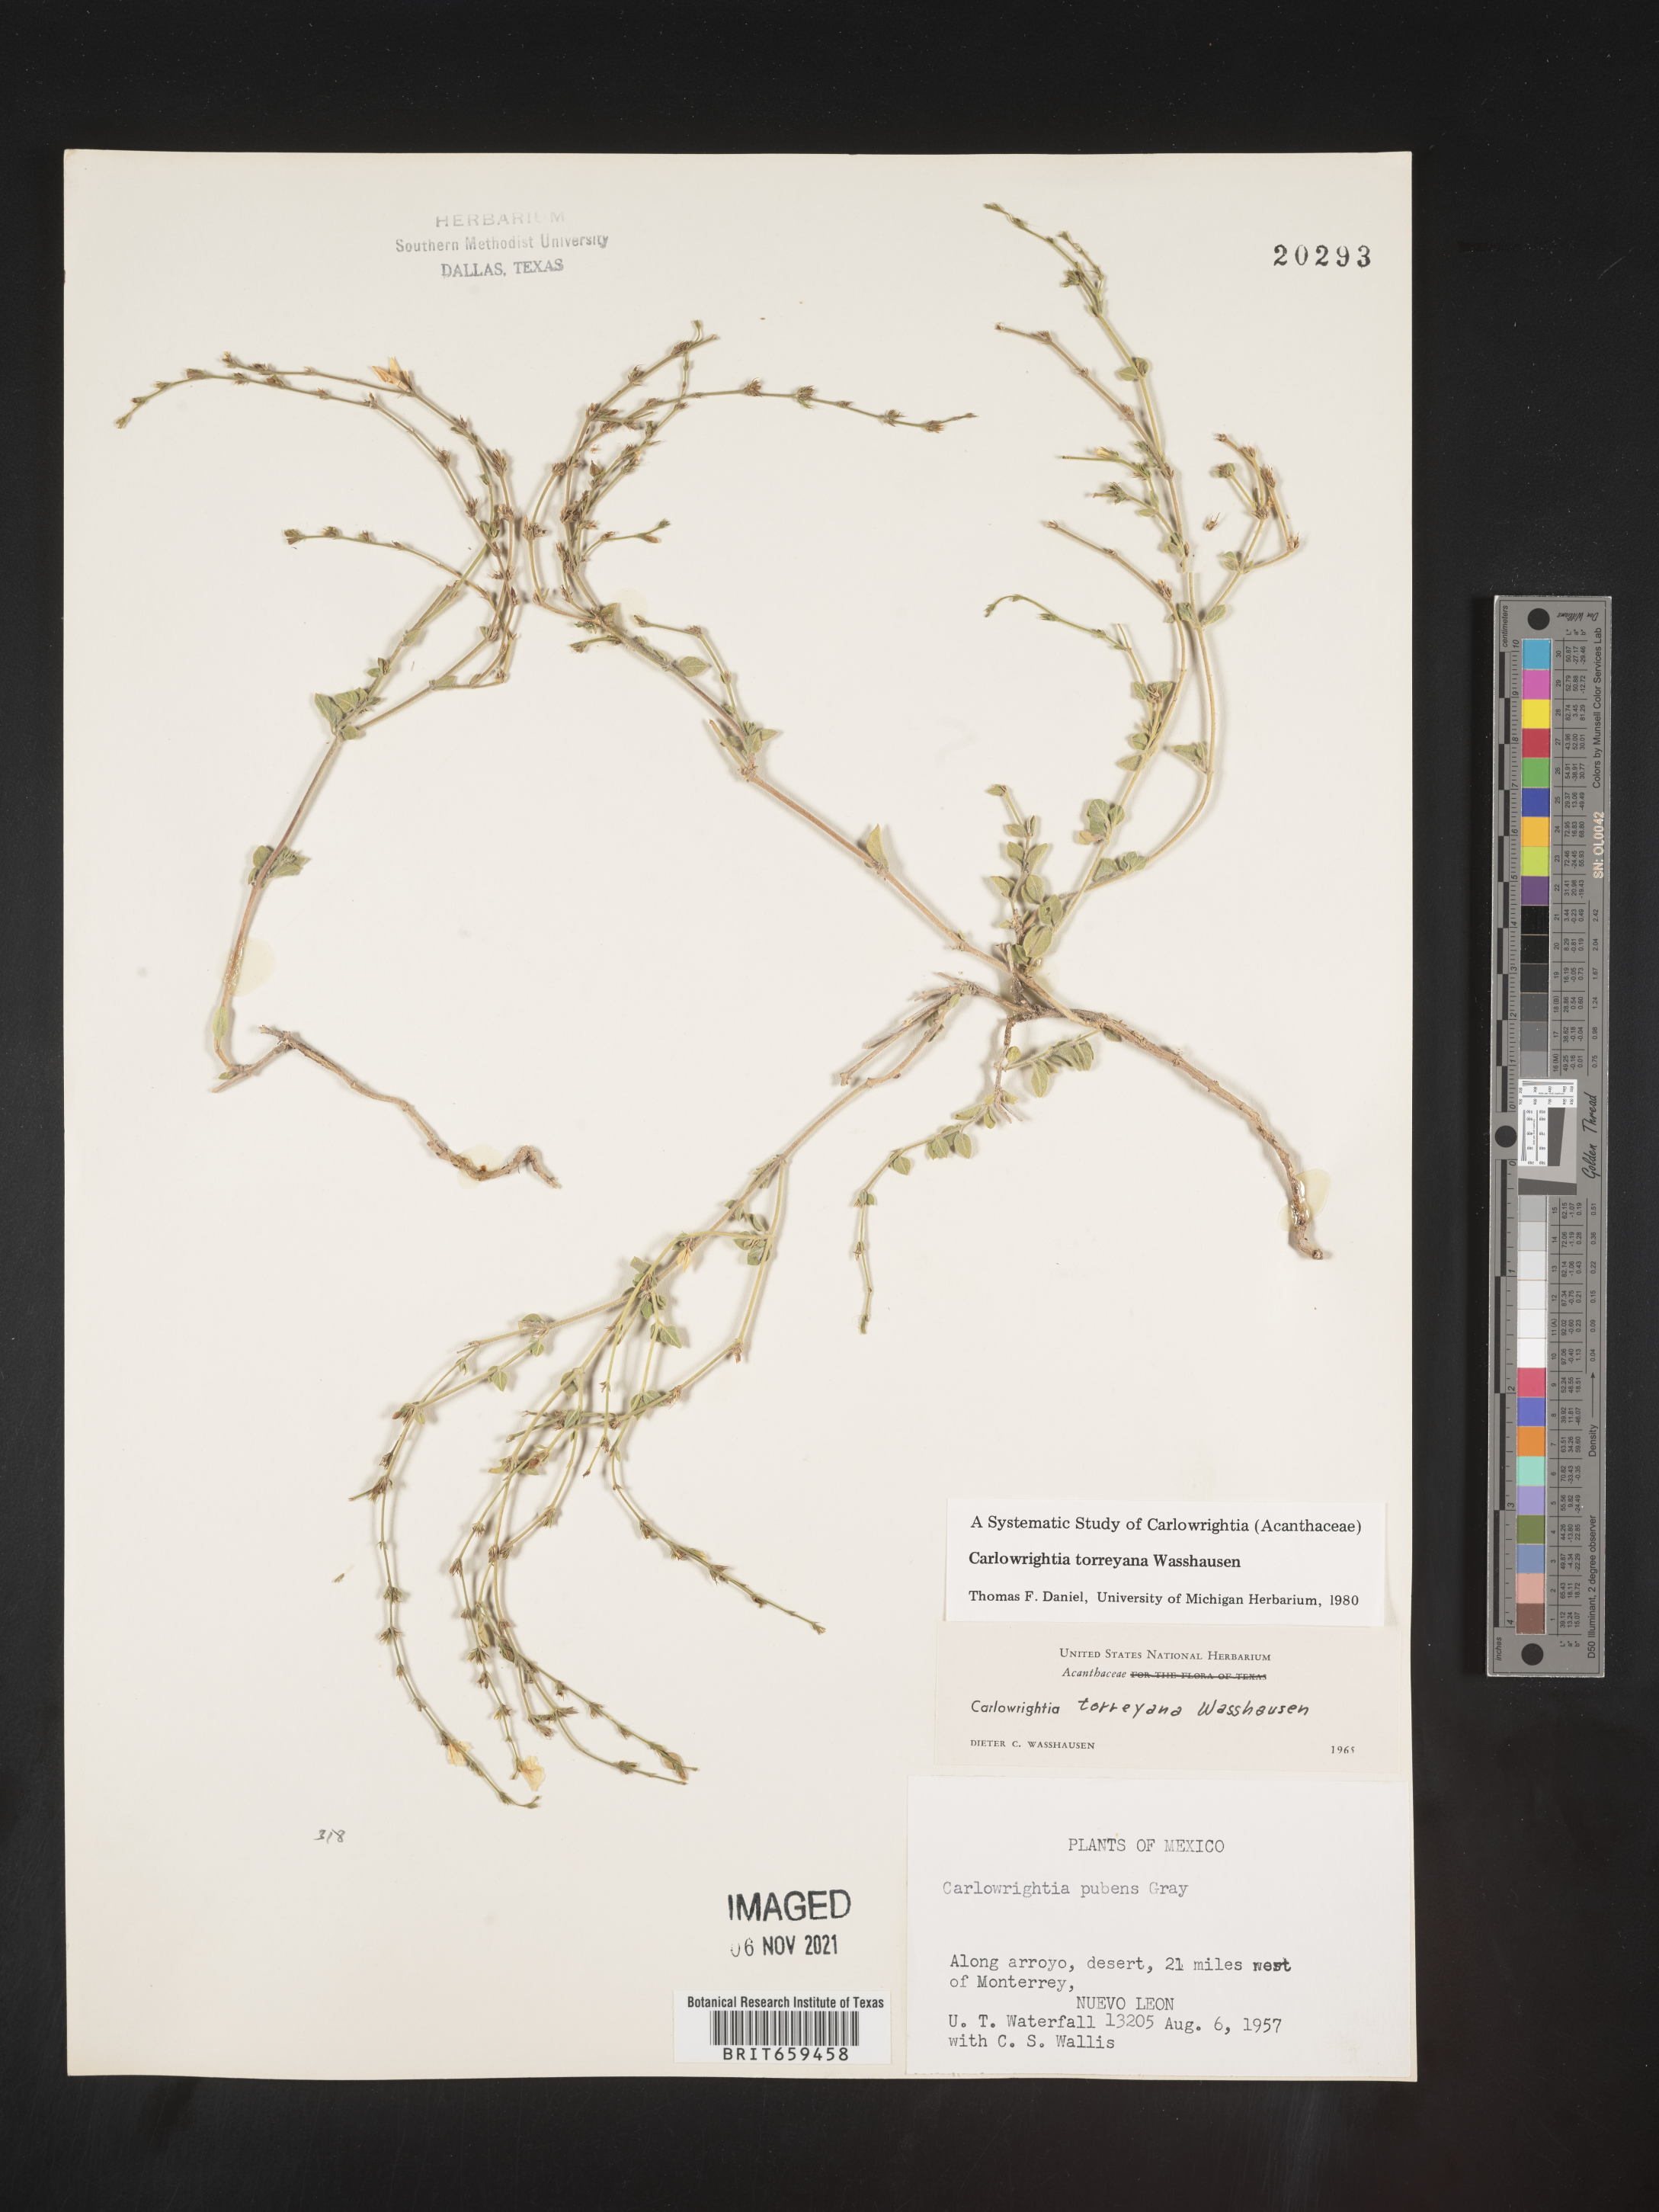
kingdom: Plantae
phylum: Tracheophyta
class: Magnoliopsida
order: Lamiales
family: Acanthaceae
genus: Carlowrightia
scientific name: Carlowrightia
